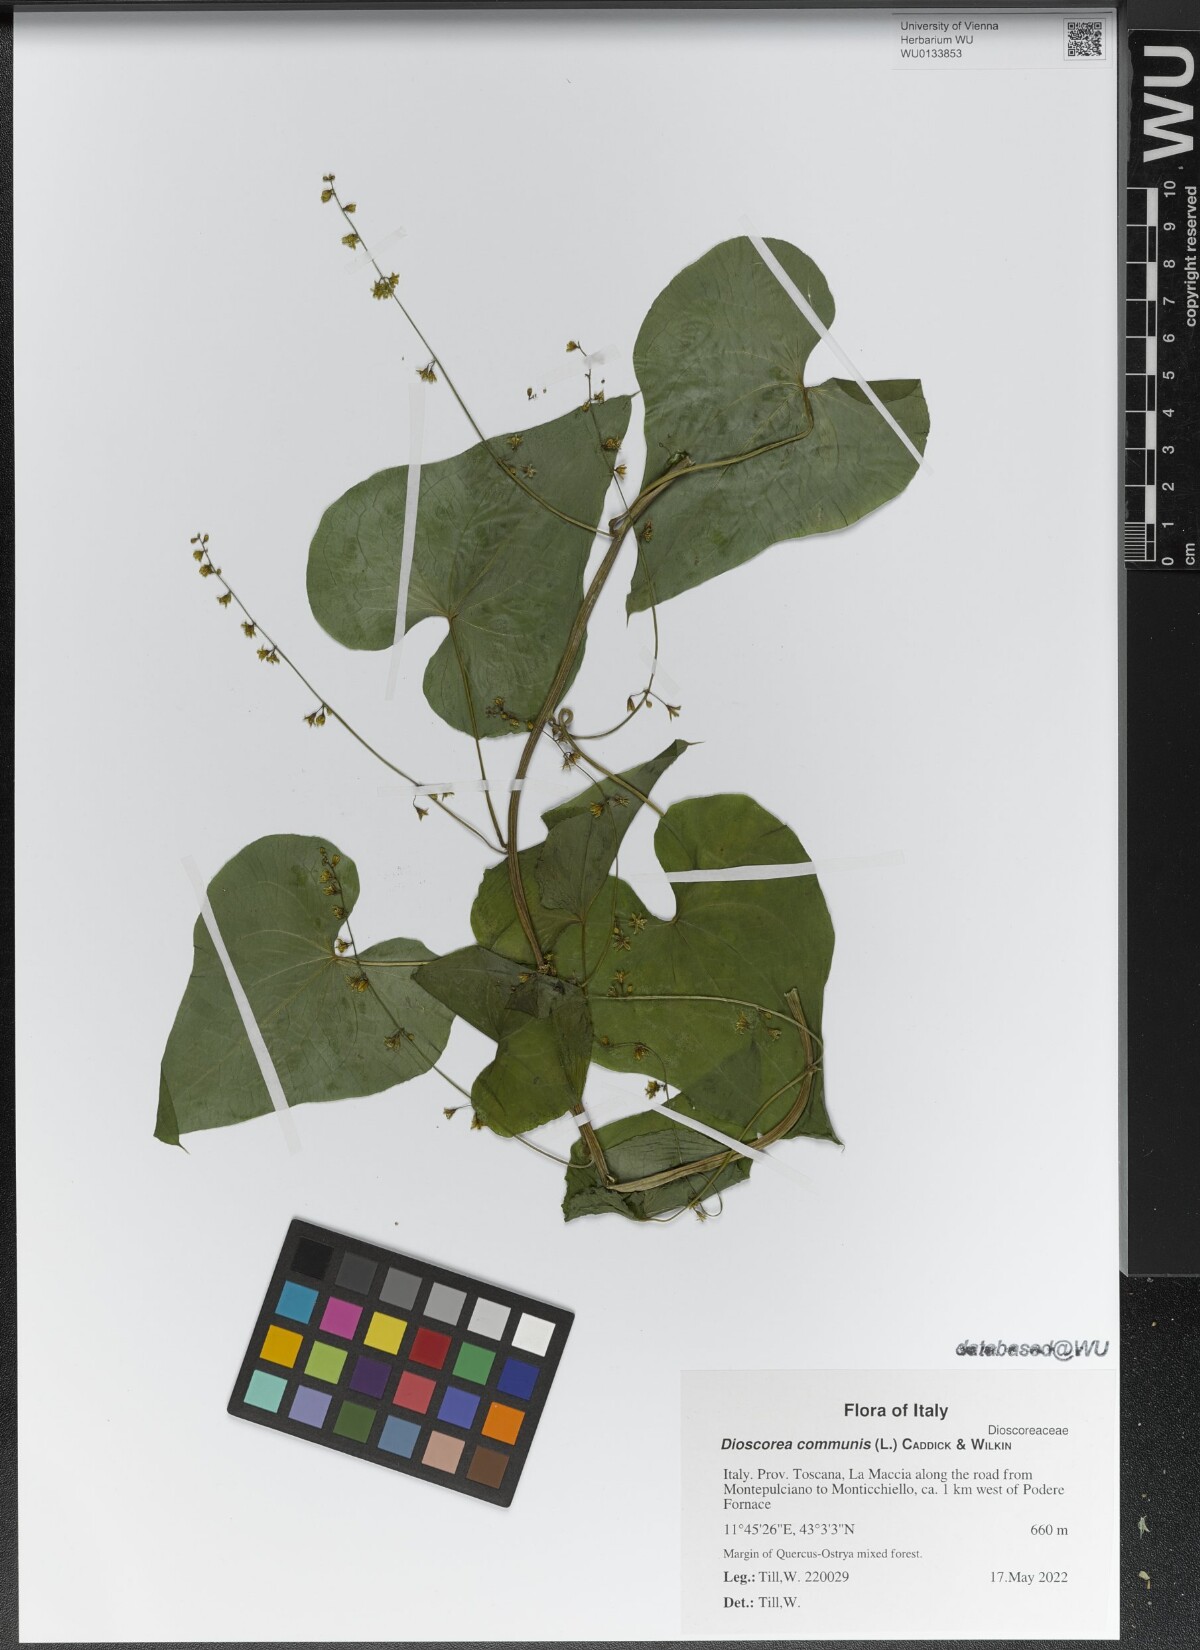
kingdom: Plantae
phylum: Tracheophyta
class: Liliopsida
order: Dioscoreales
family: Dioscoreaceae
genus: Dioscorea
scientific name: Dioscorea communis
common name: Black-bindweed
